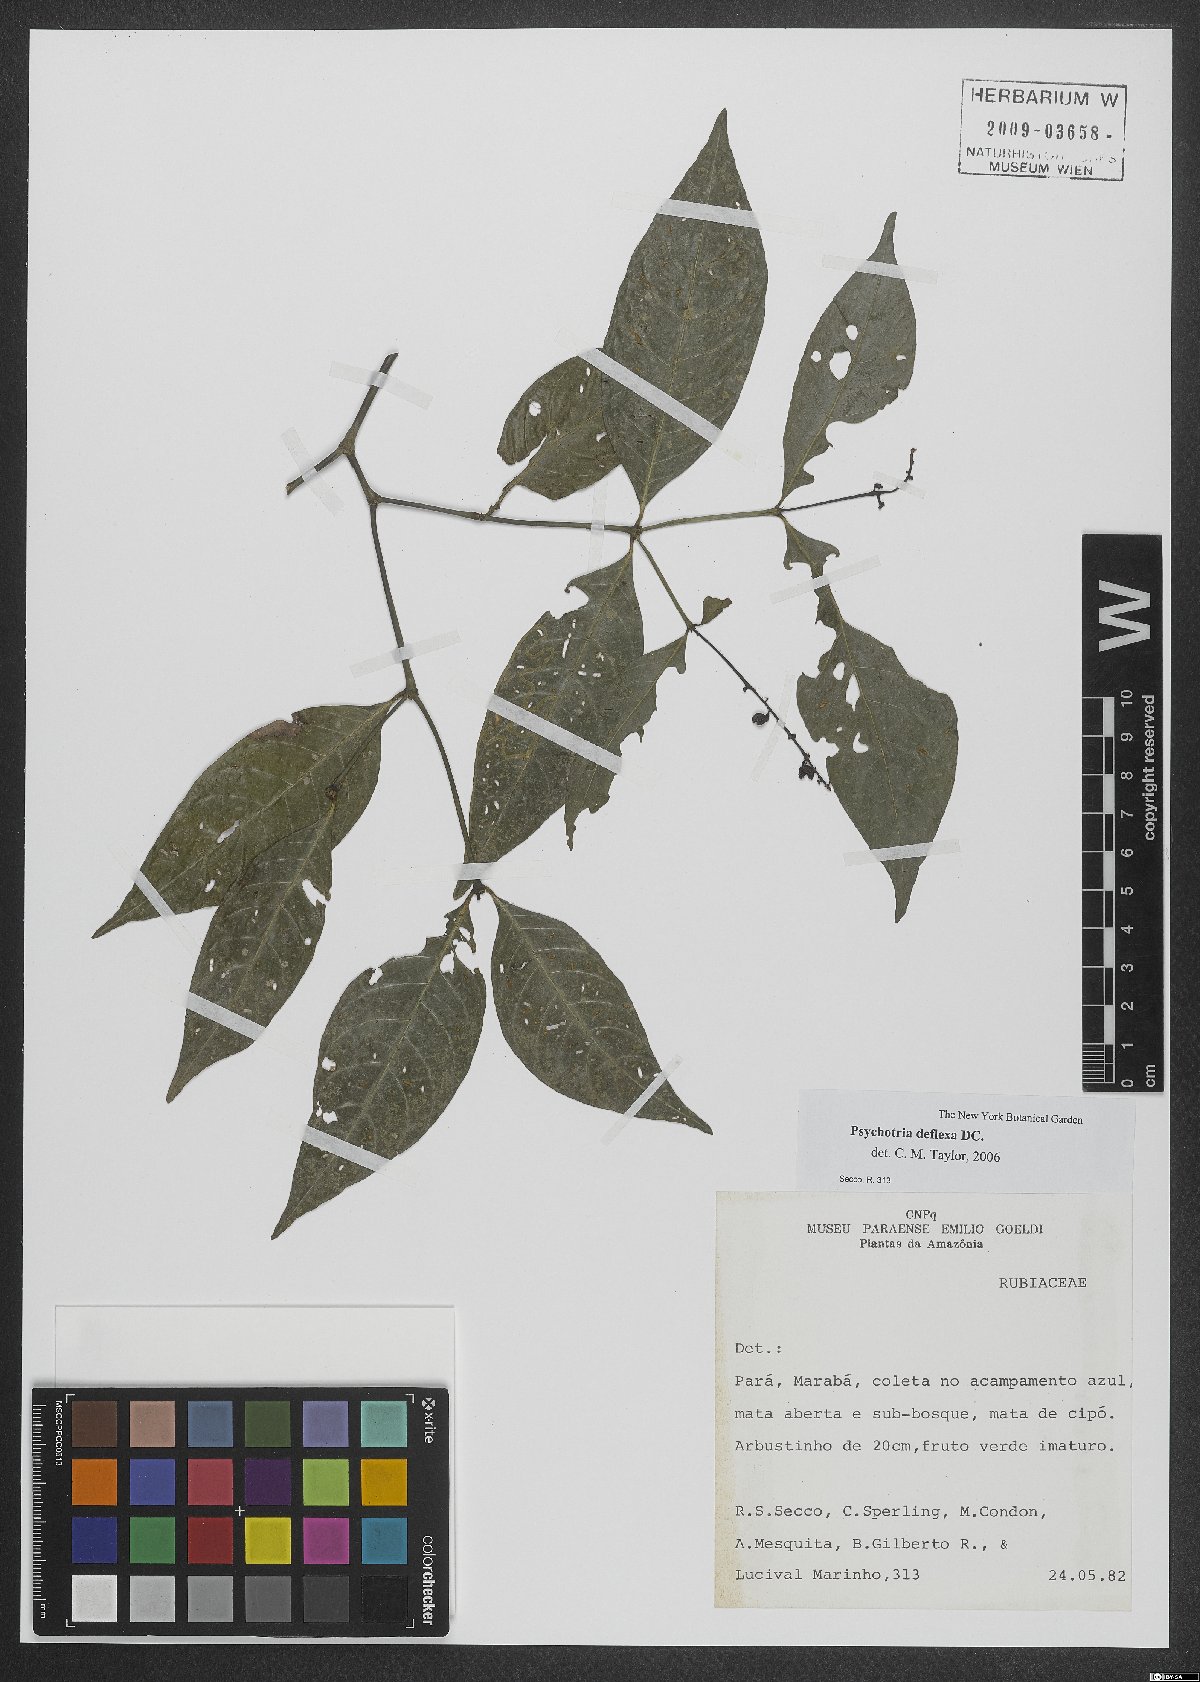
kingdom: Plantae
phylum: Tracheophyta
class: Magnoliopsida
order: Gentianales
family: Rubiaceae
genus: Palicourea
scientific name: Palicourea deflexa
